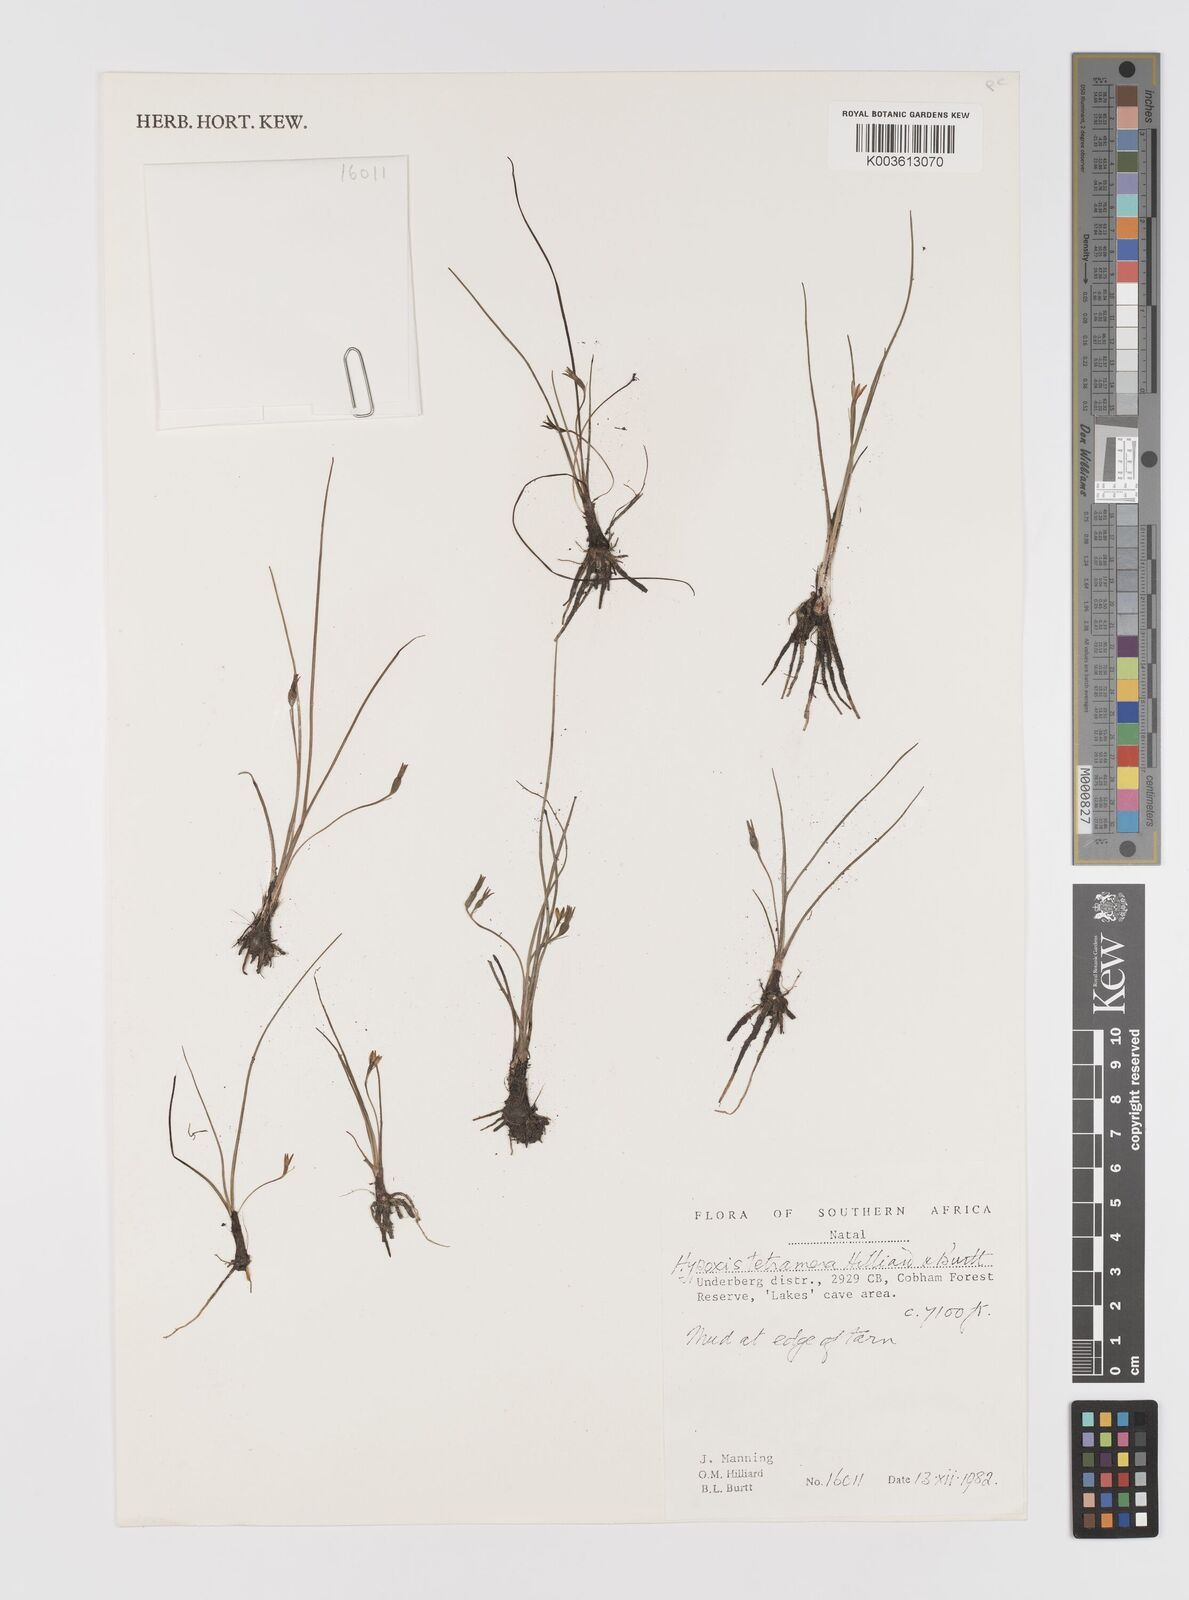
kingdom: Plantae
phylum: Tracheophyta
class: Liliopsida
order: Asparagales
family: Hypoxidaceae
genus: Hypoxis
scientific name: Hypoxis tetramera
